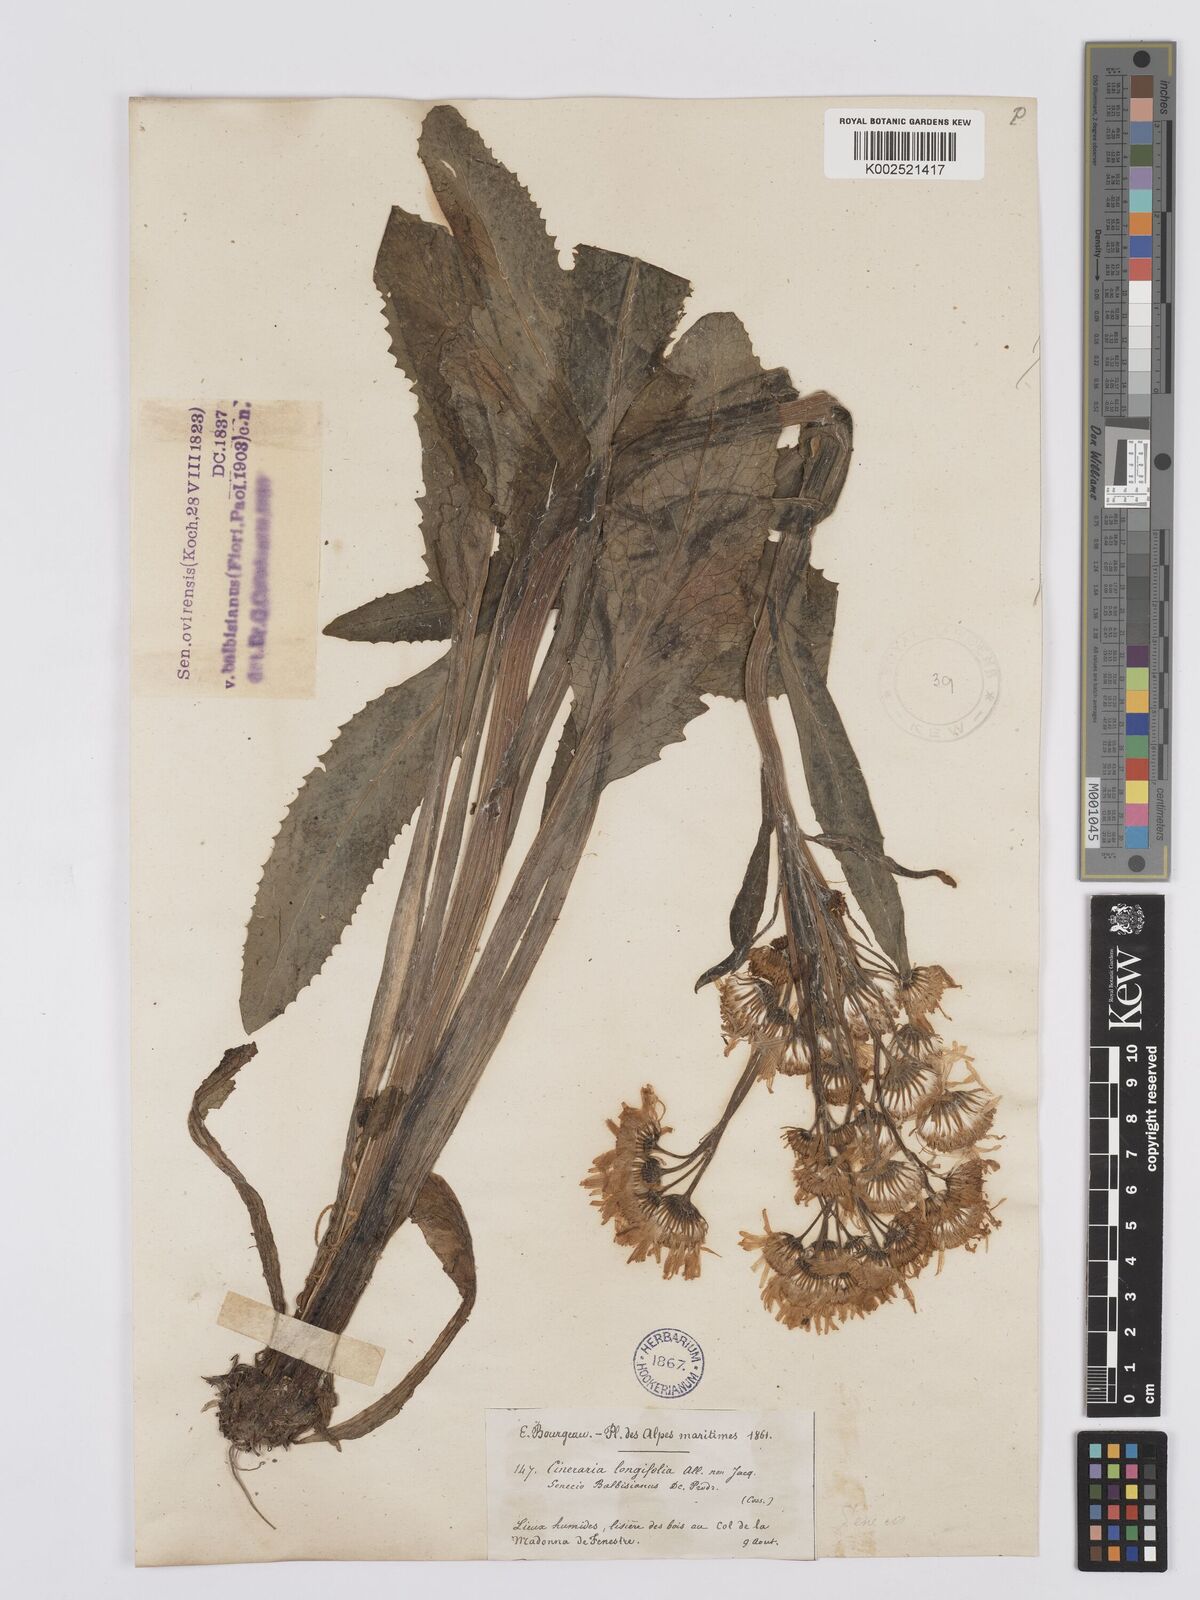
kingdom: Plantae
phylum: Tracheophyta
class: Magnoliopsida
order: Asterales
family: Asteraceae
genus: Tephroseris
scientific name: Tephroseris balbisiana
